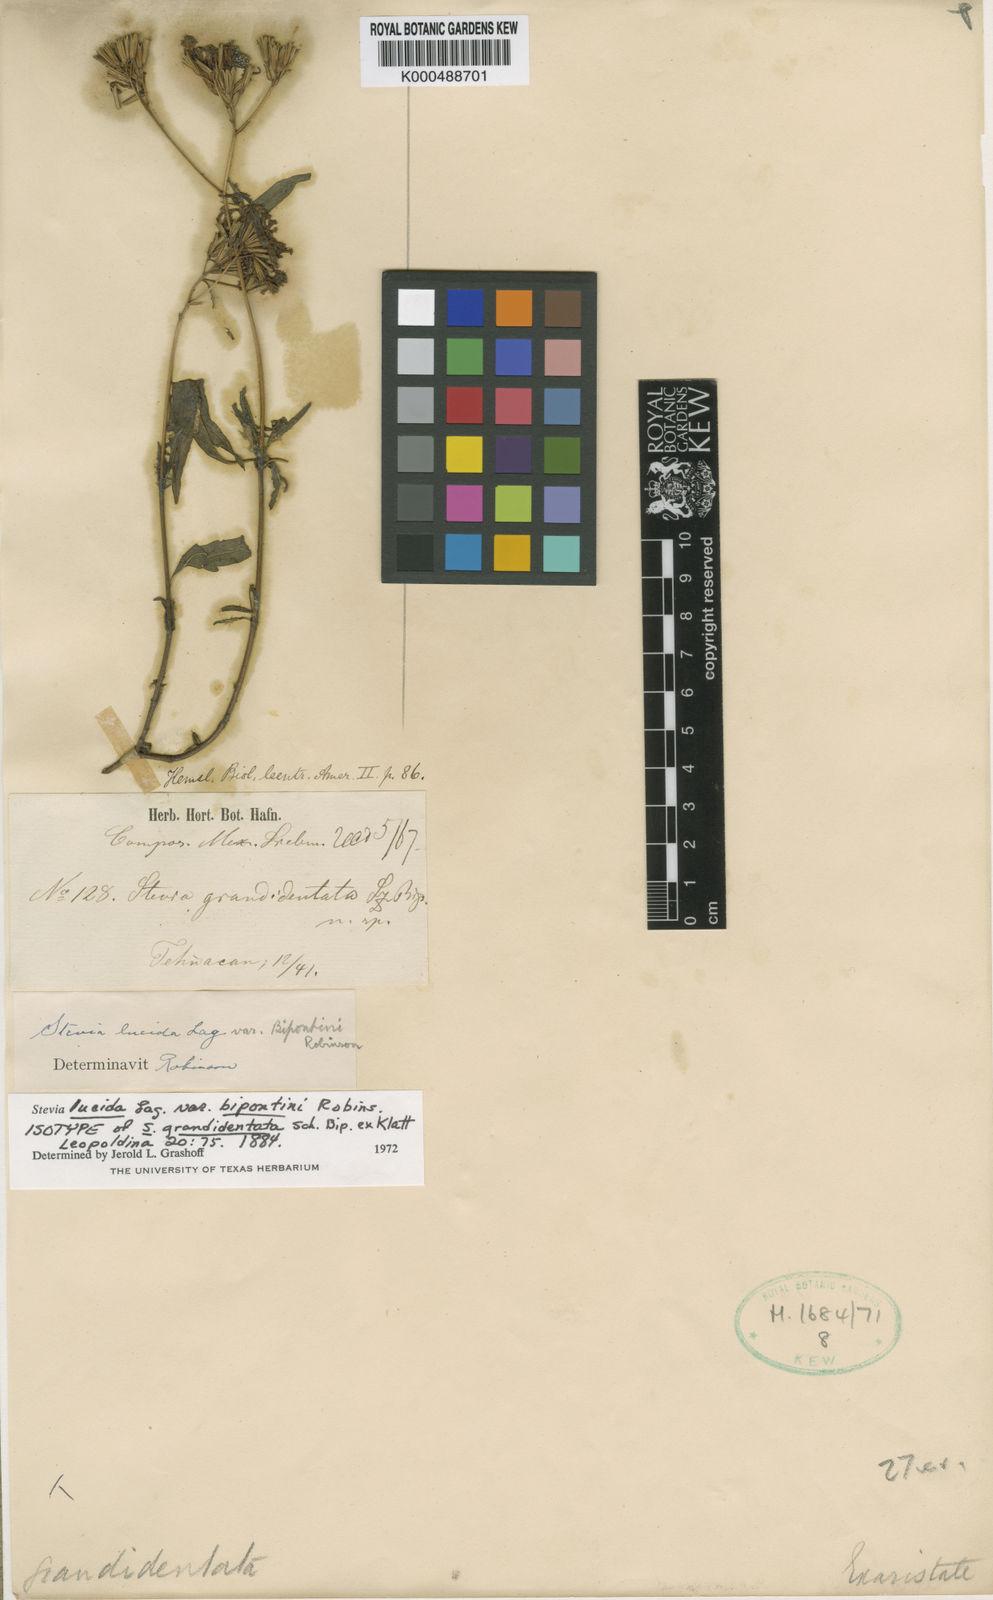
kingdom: Plantae
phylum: Tracheophyta
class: Magnoliopsida
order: Asterales
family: Asteraceae
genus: Stevia
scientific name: Stevia lucida
